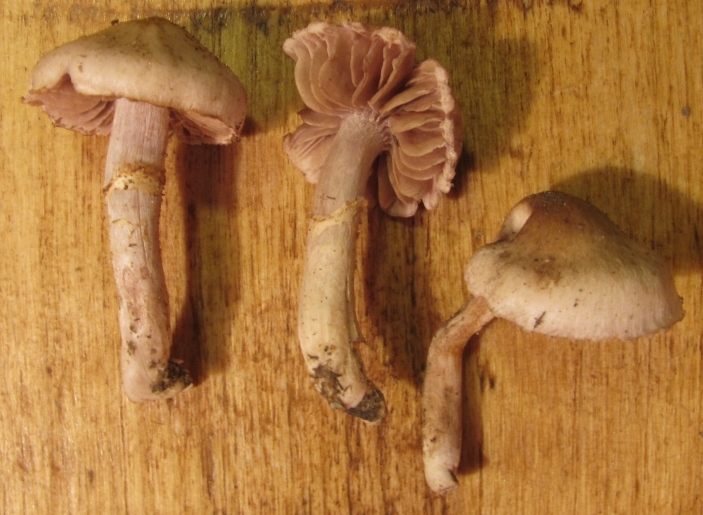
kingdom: Fungi
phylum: Basidiomycota
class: Agaricomycetes
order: Agaricales
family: Cortinariaceae
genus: Cortinarius
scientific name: Cortinarius torvus
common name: champignonagtig slørhat
